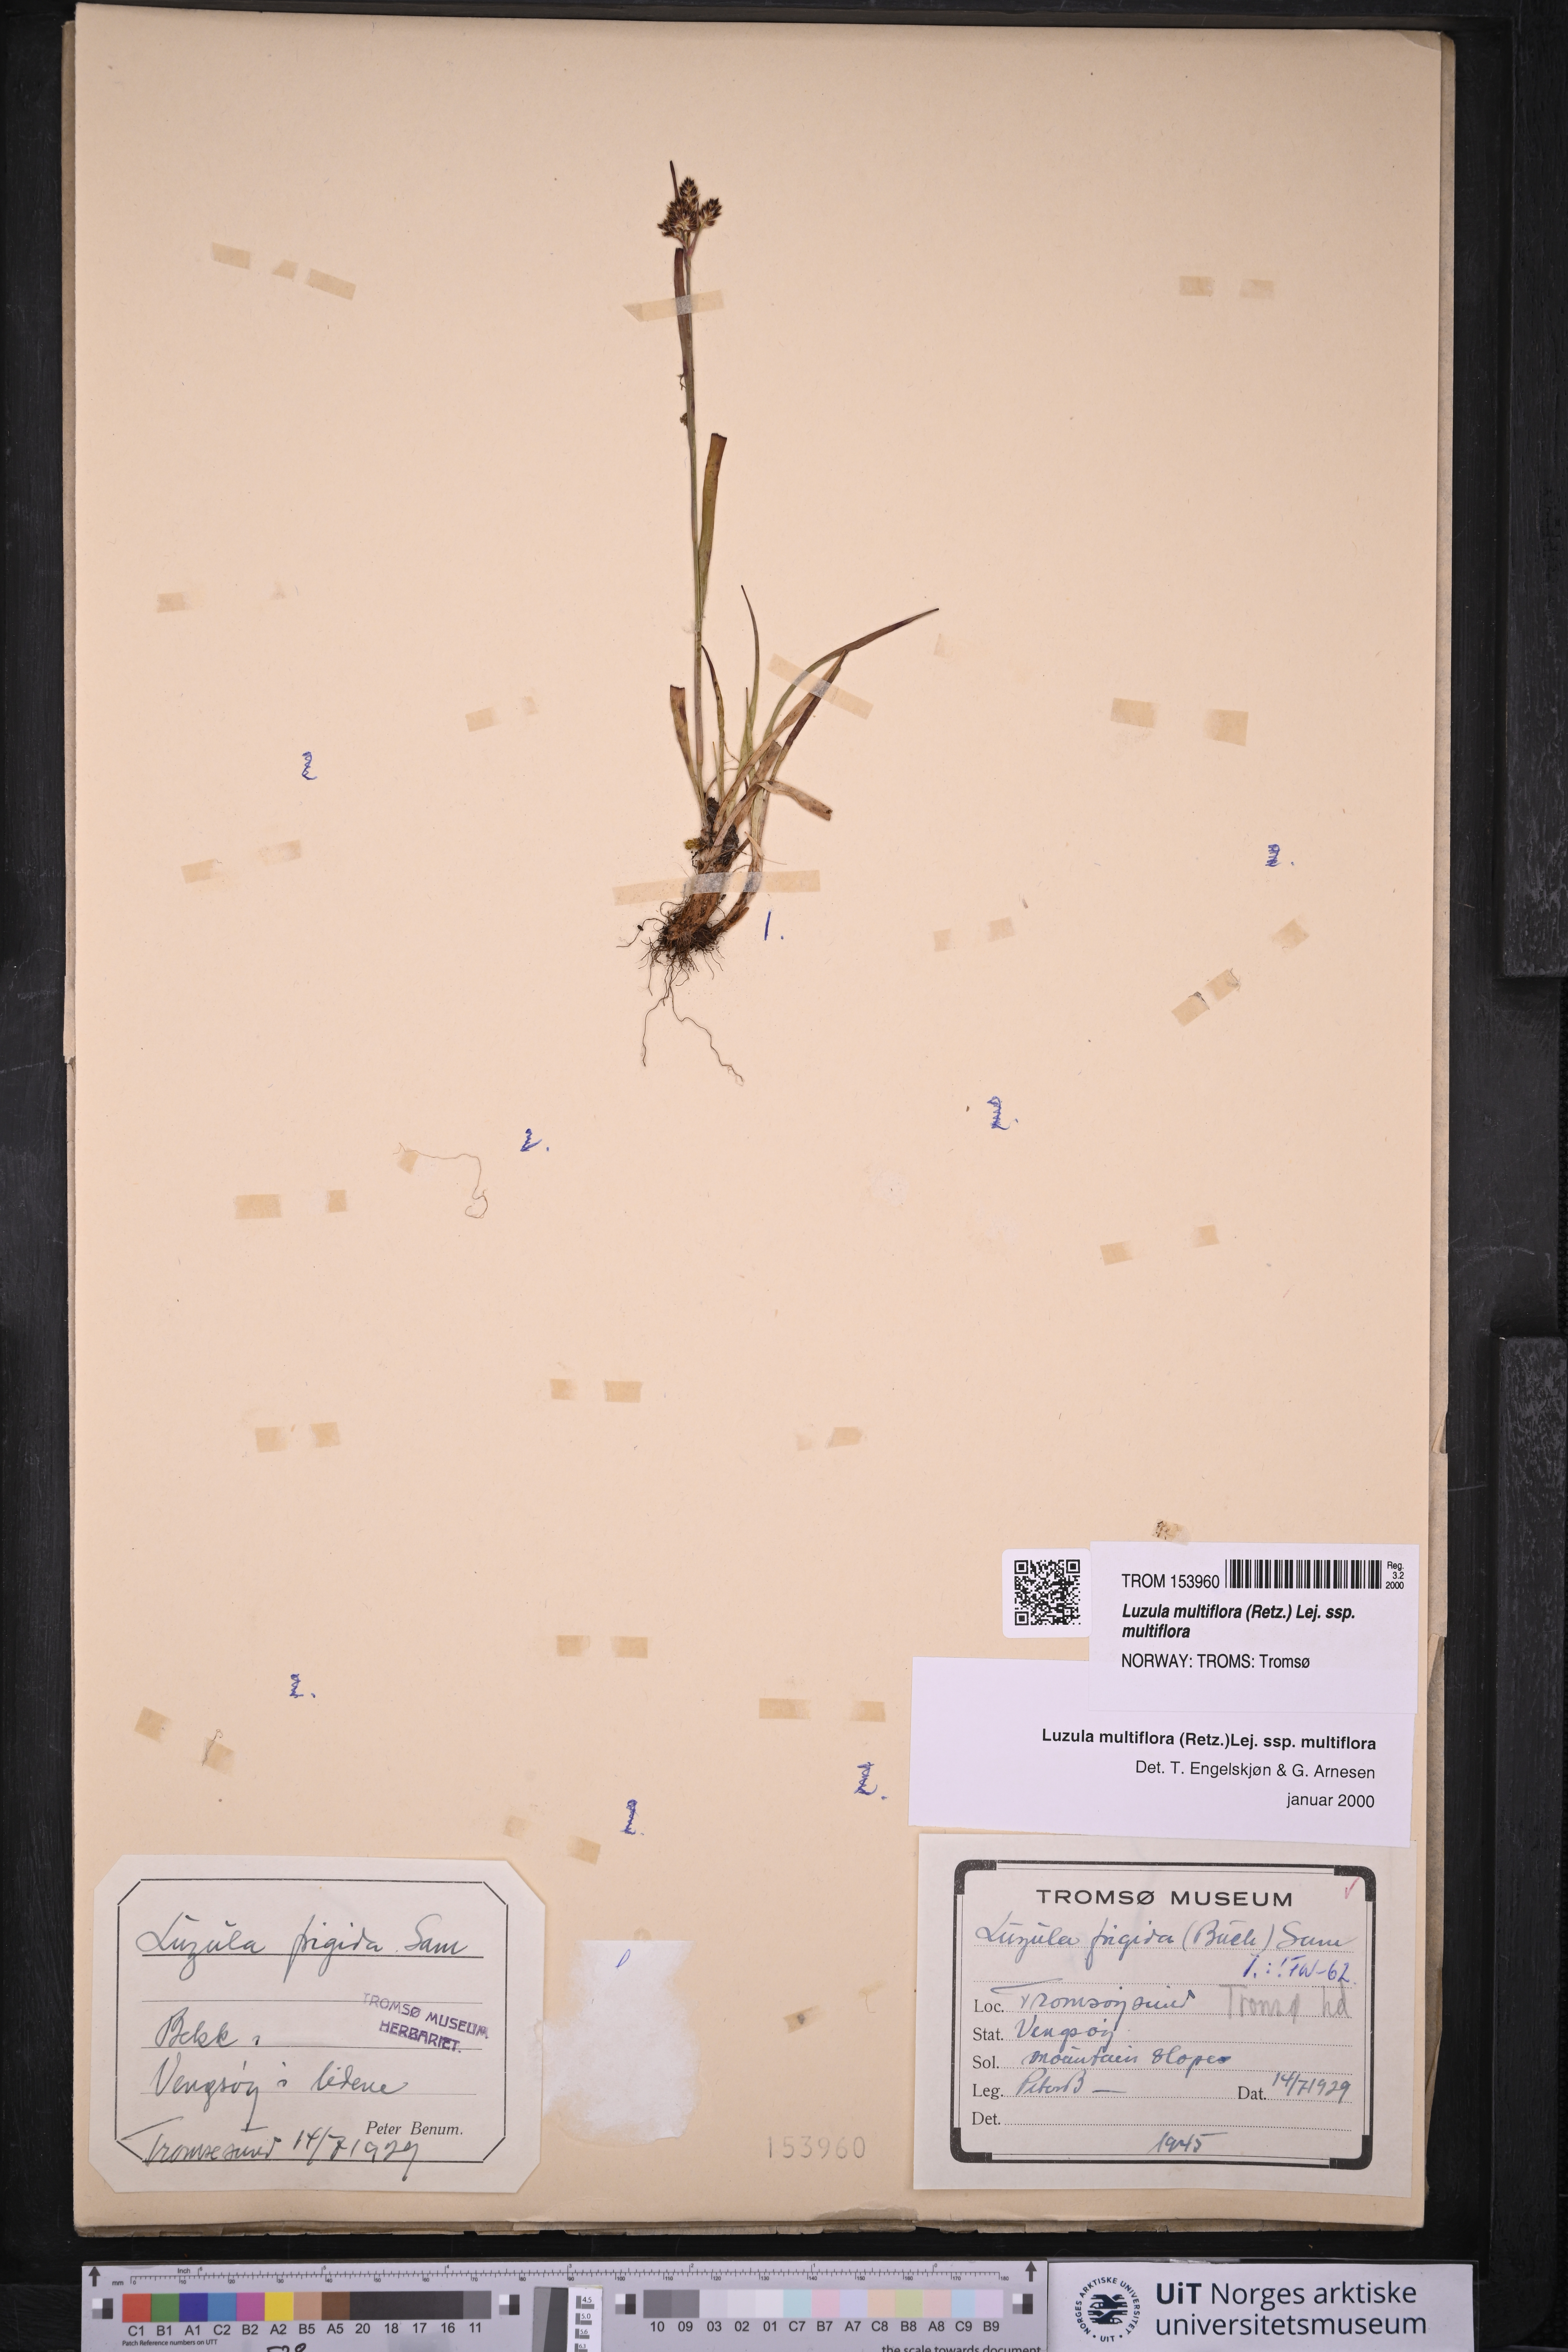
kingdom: Plantae
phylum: Tracheophyta
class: Liliopsida
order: Poales
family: Juncaceae
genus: Luzula
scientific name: Luzula multiflora
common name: Heath wood-rush
